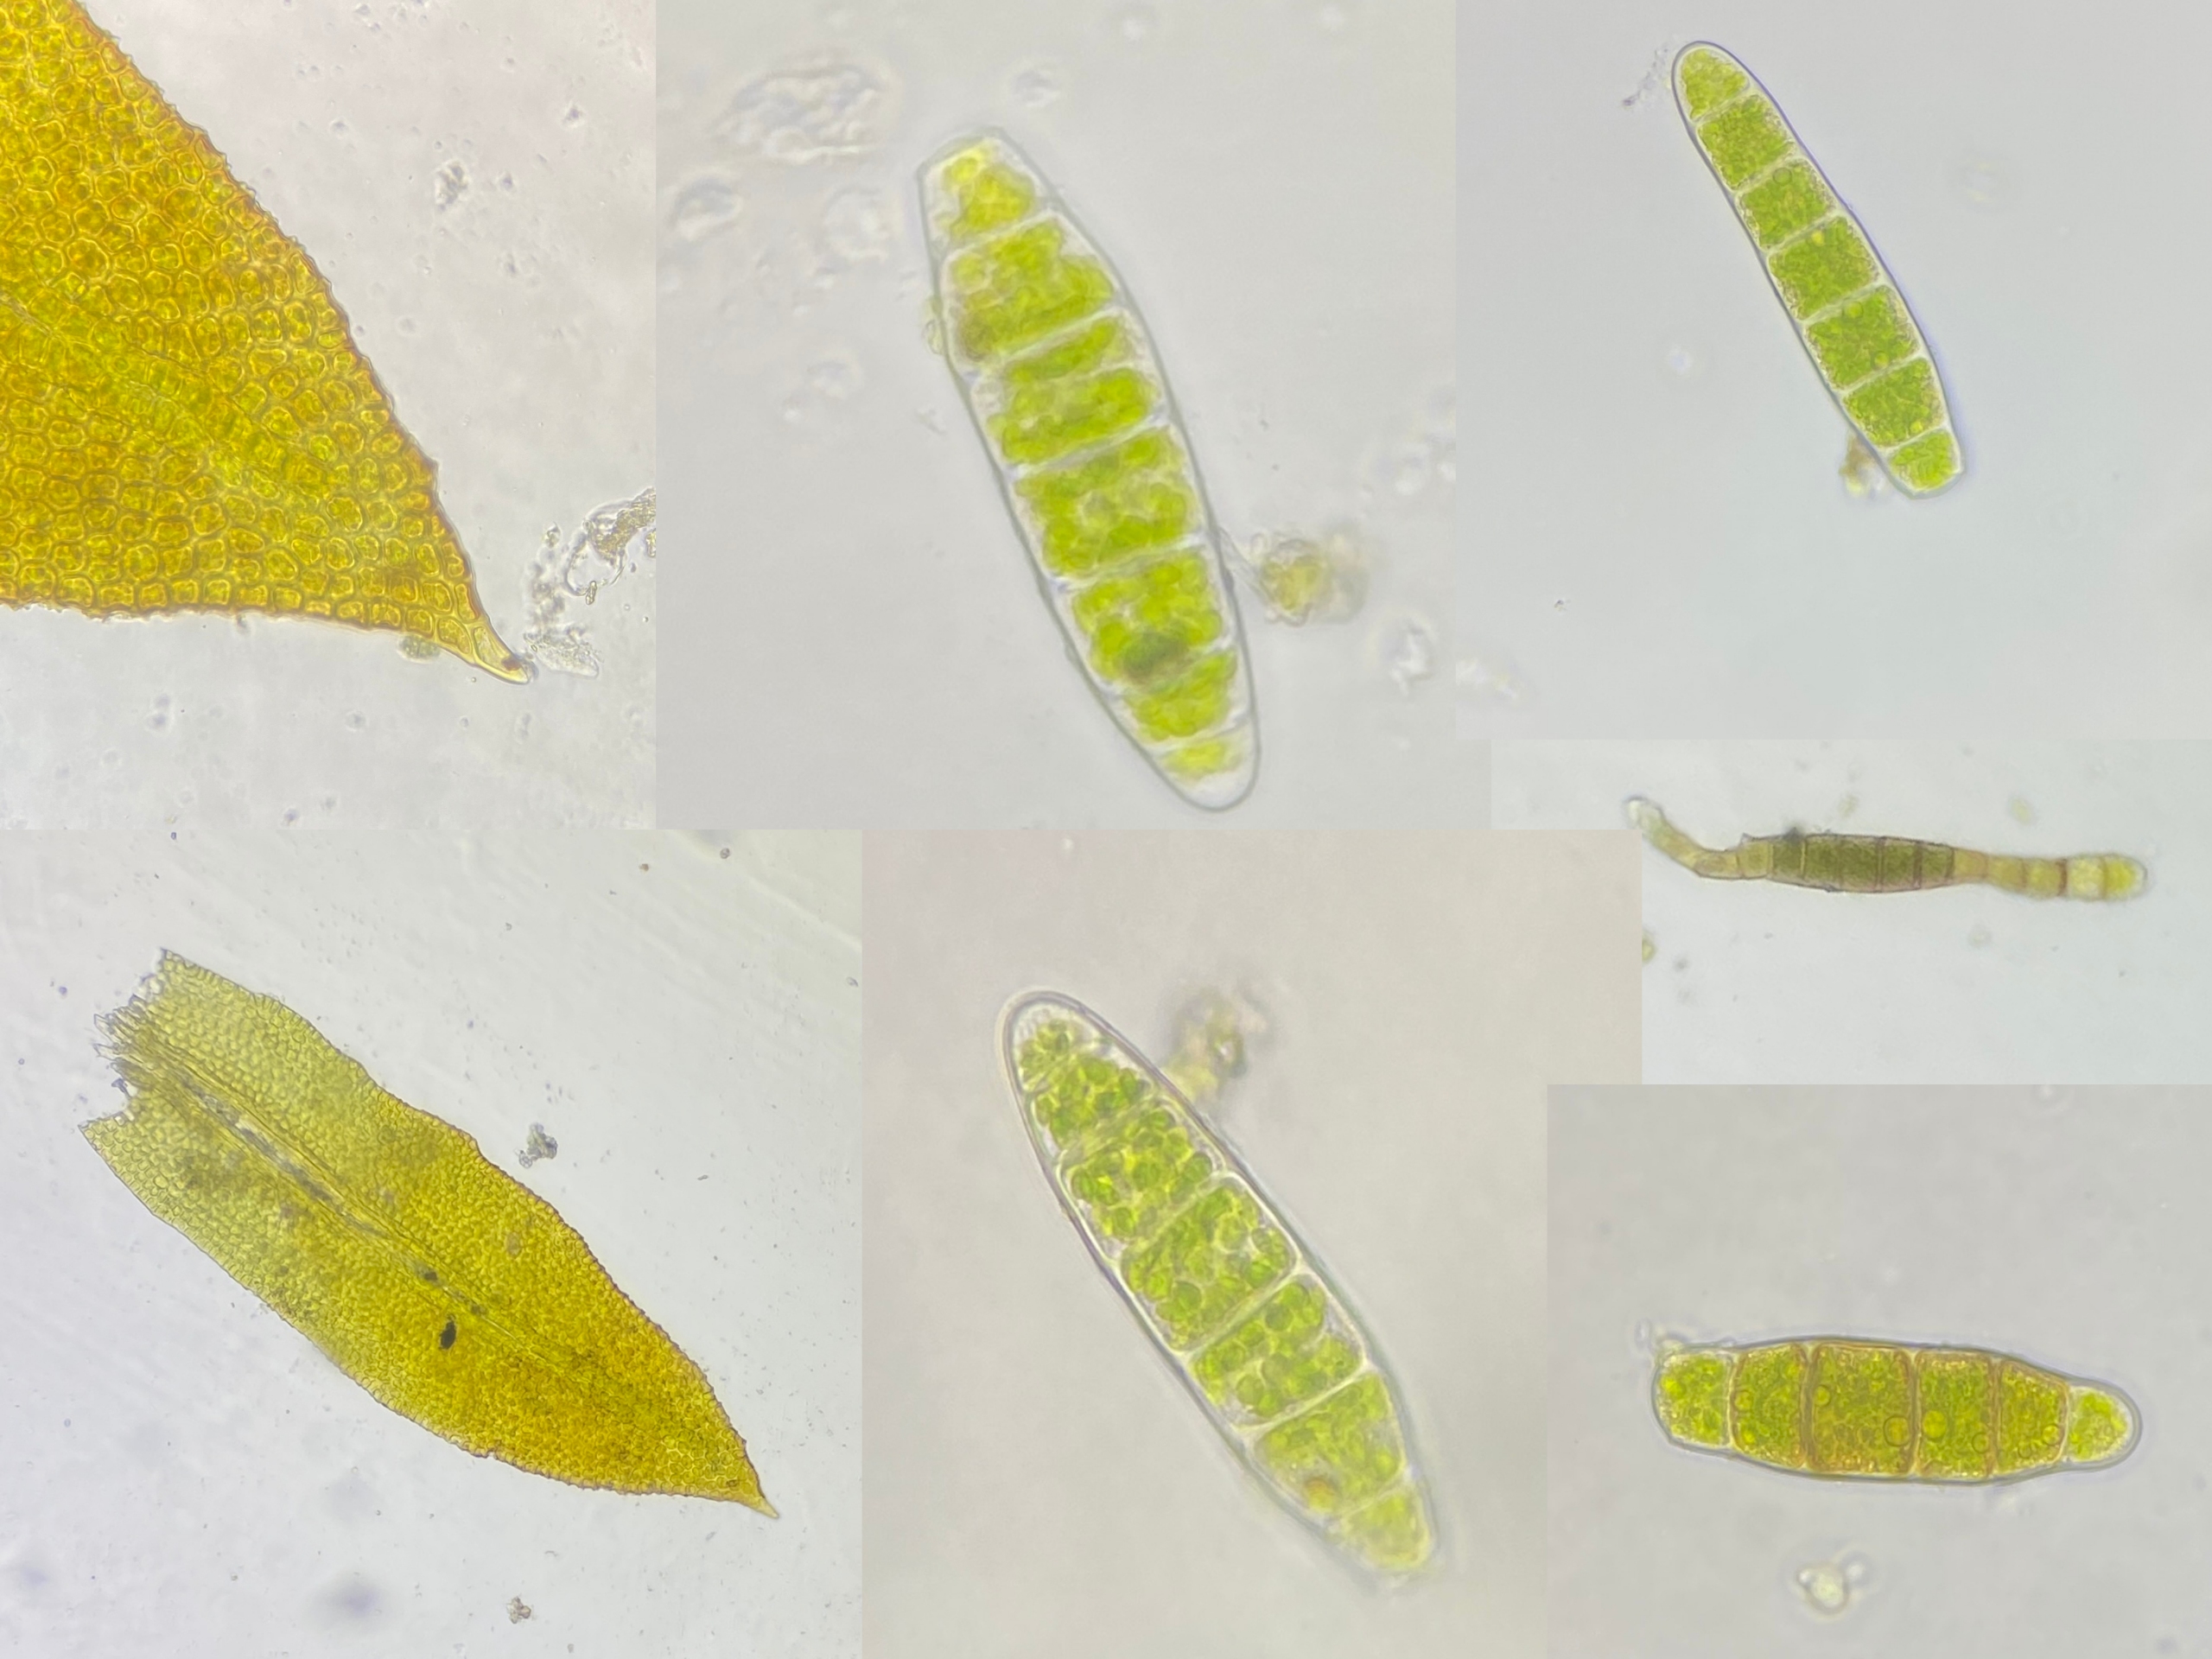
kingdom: Plantae
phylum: Bryophyta
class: Bryopsida
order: Orthotrichales
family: Orthotrichaceae
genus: Zygodon
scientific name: Zygodon conoideus
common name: Tand-køllemos
